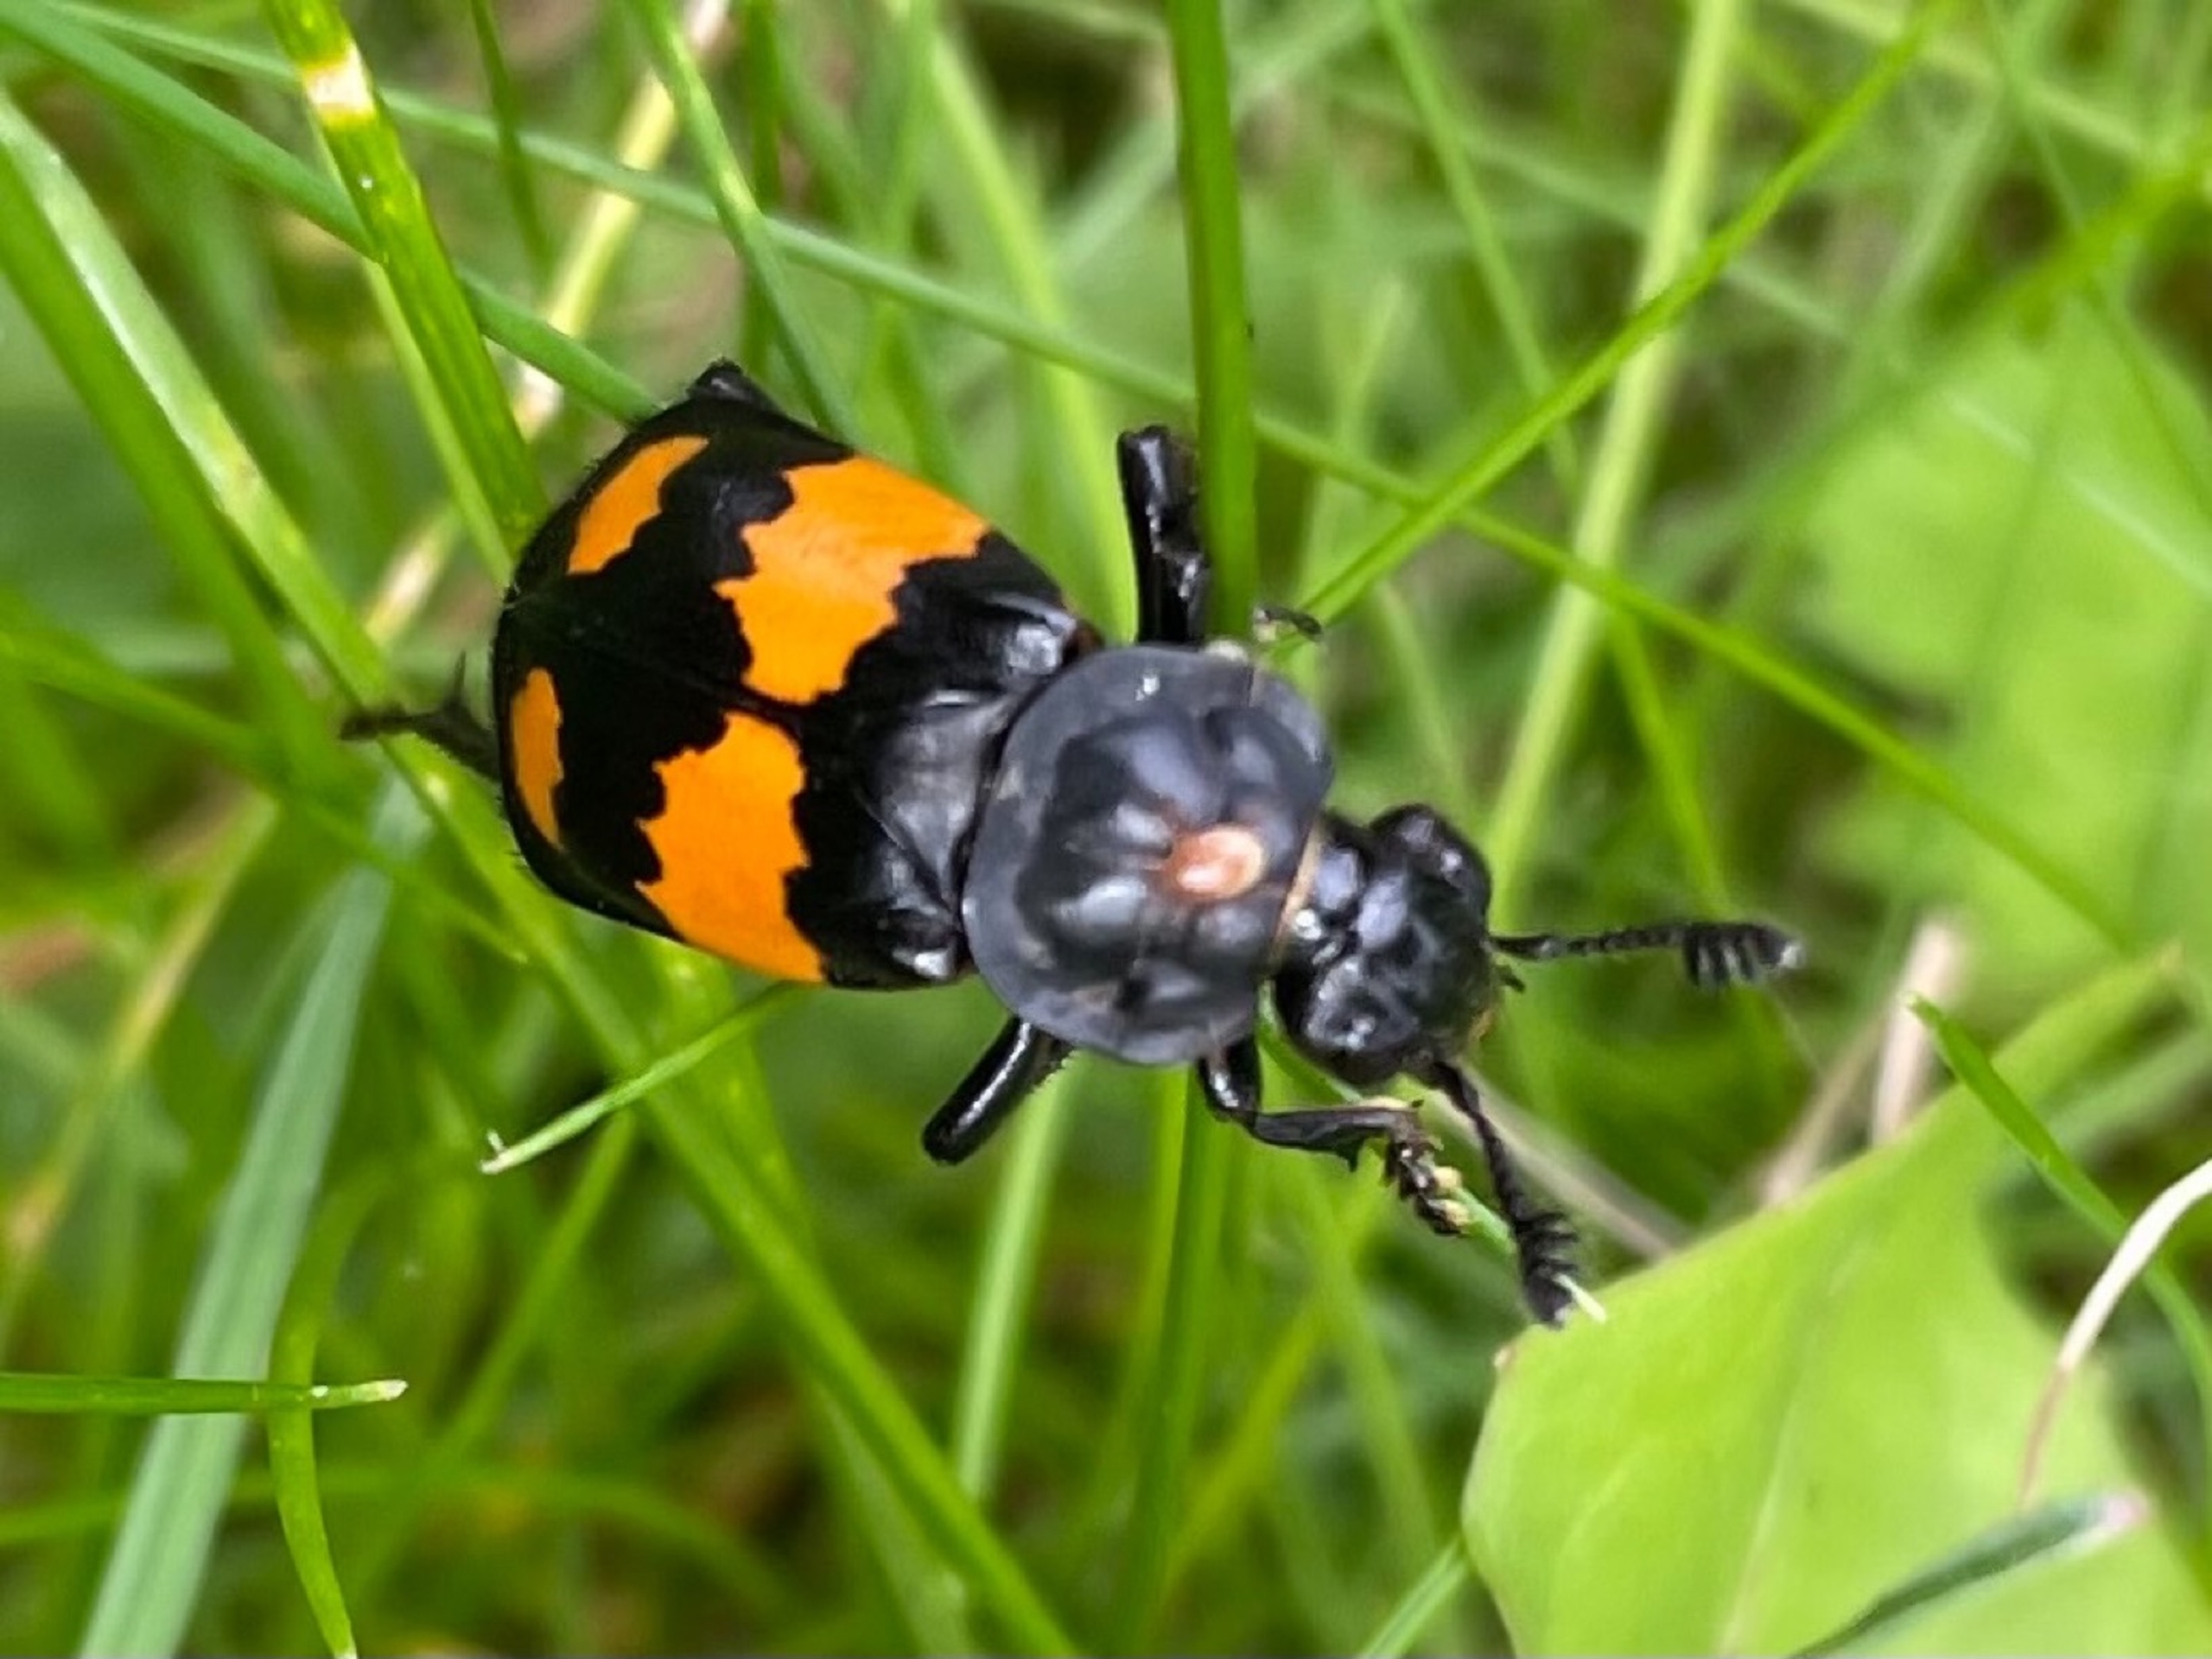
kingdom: Animalia
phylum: Arthropoda
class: Insecta
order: Coleoptera
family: Staphylinidae
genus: Nicrophorus
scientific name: Nicrophorus vespilloides
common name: Sortkøllet ådselgraver
